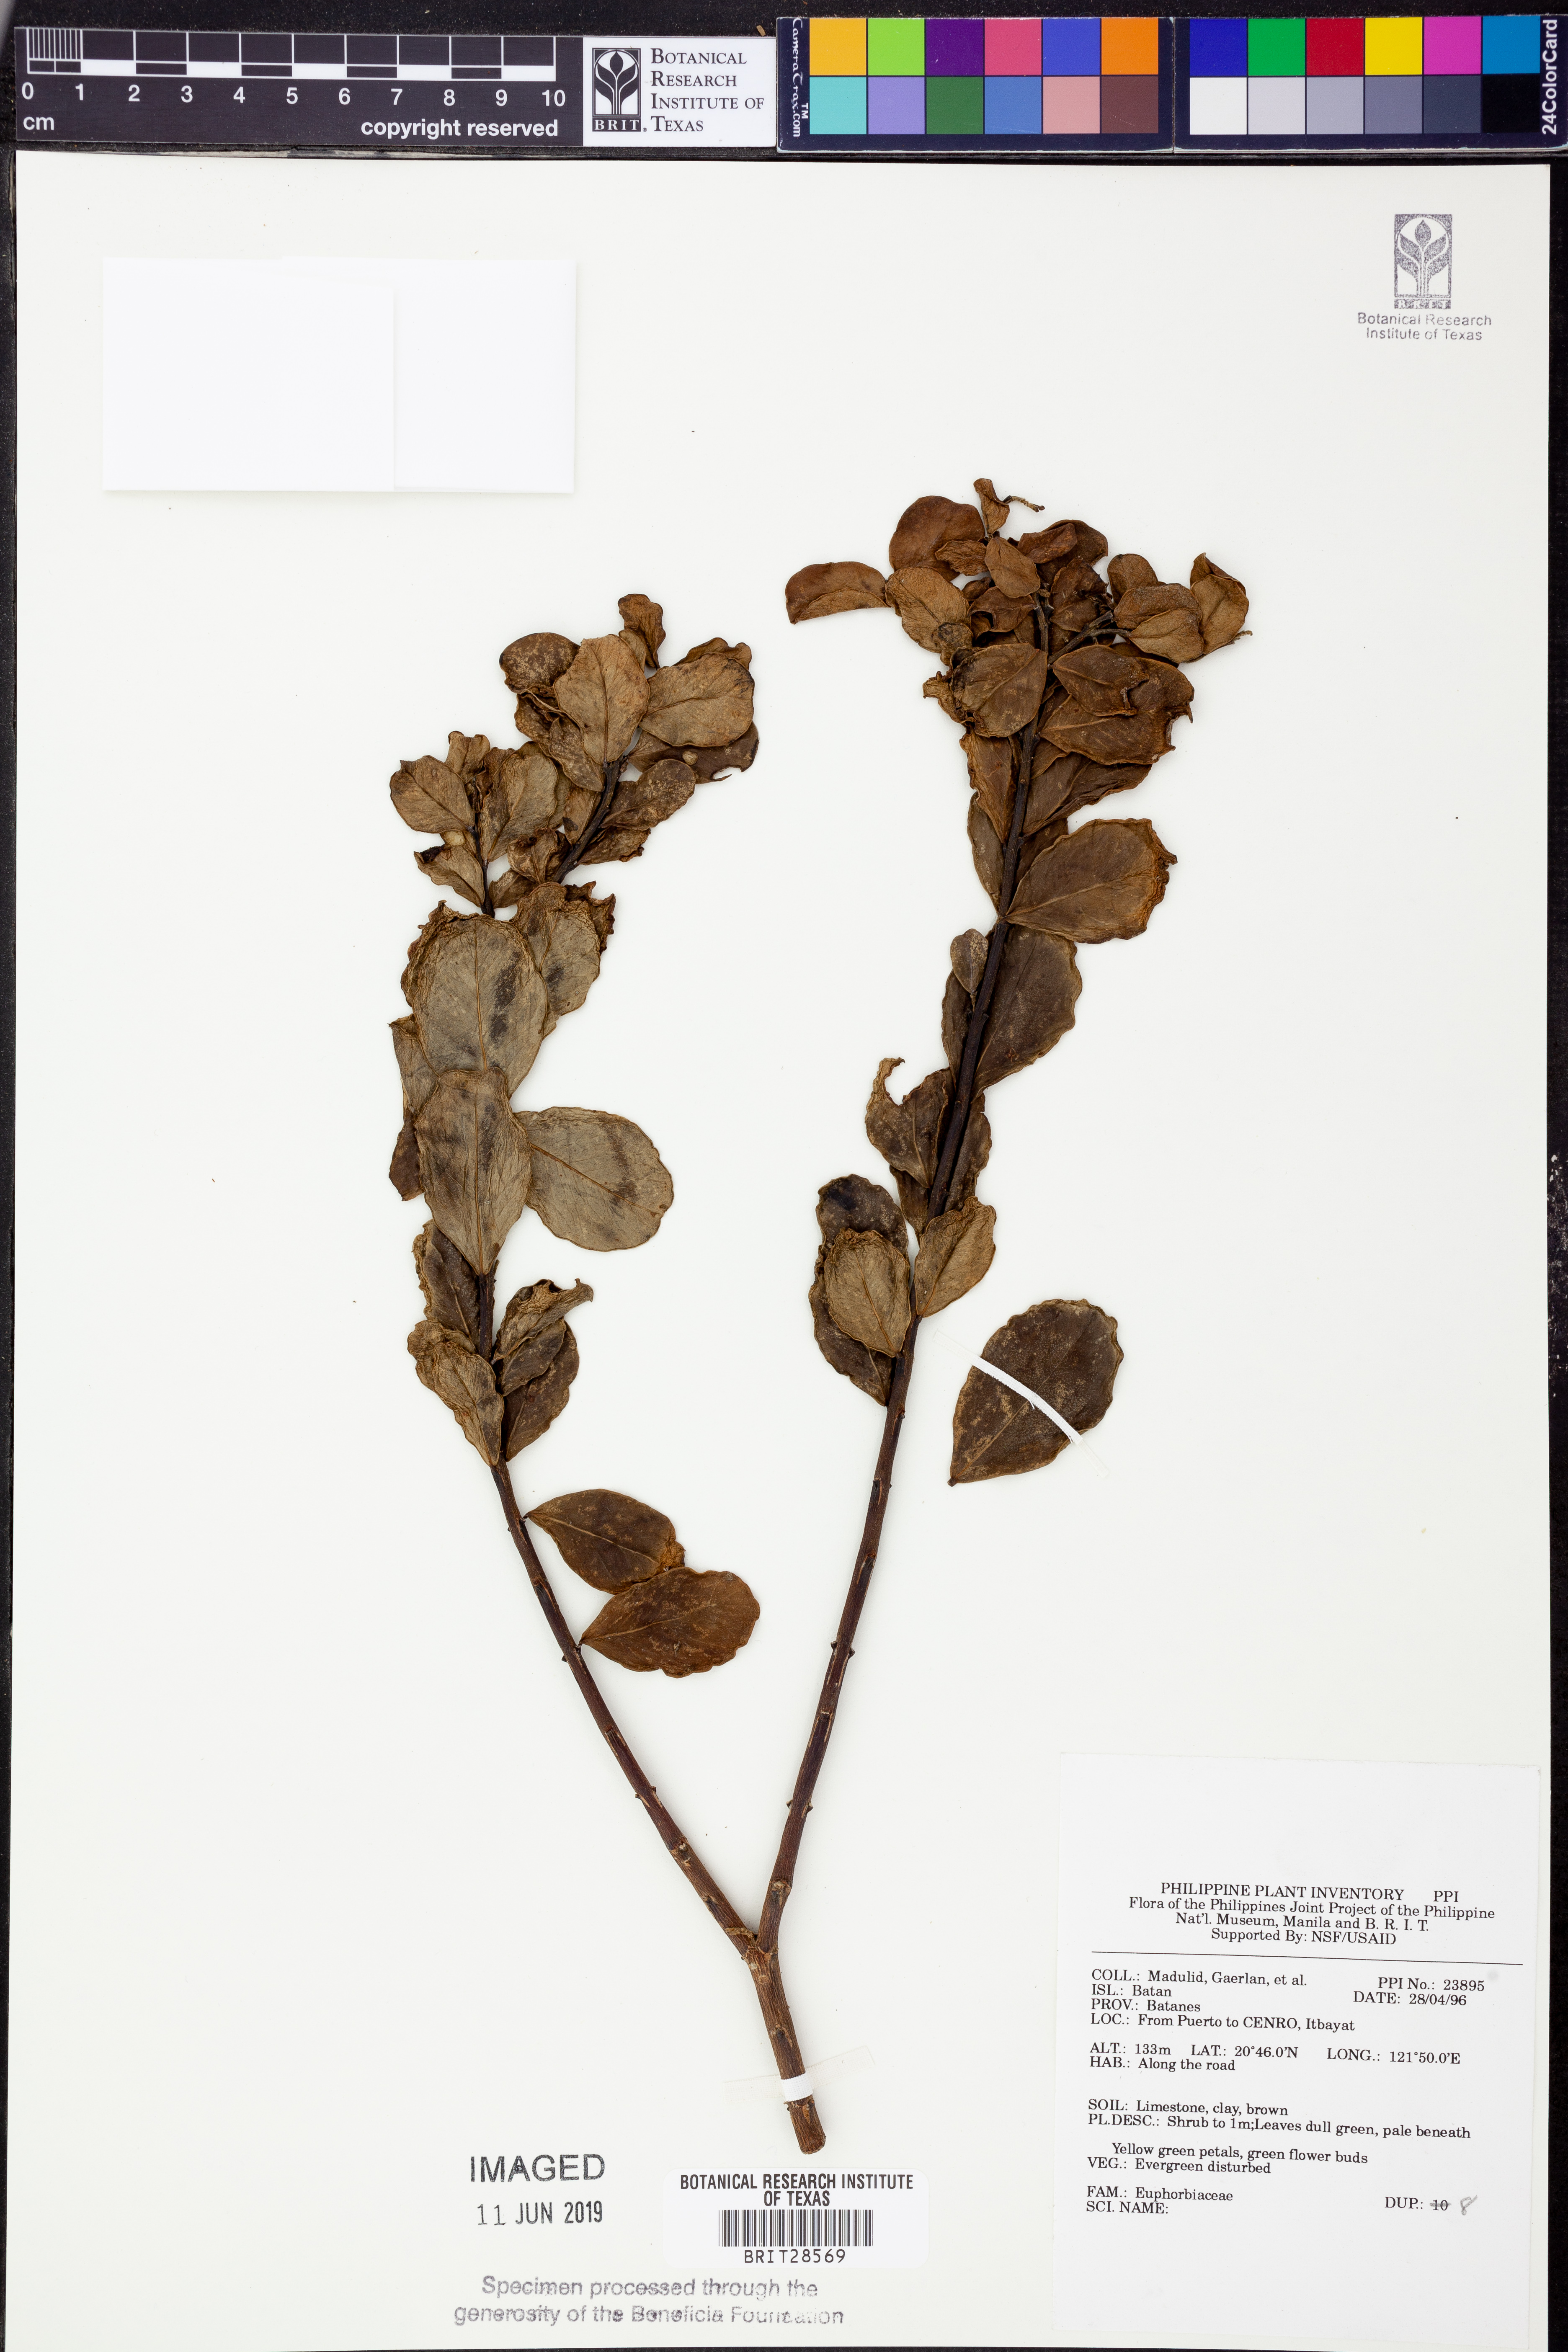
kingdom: Plantae
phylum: Tracheophyta
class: Magnoliopsida
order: Malpighiales
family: Euphorbiaceae
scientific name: Euphorbiaceae
